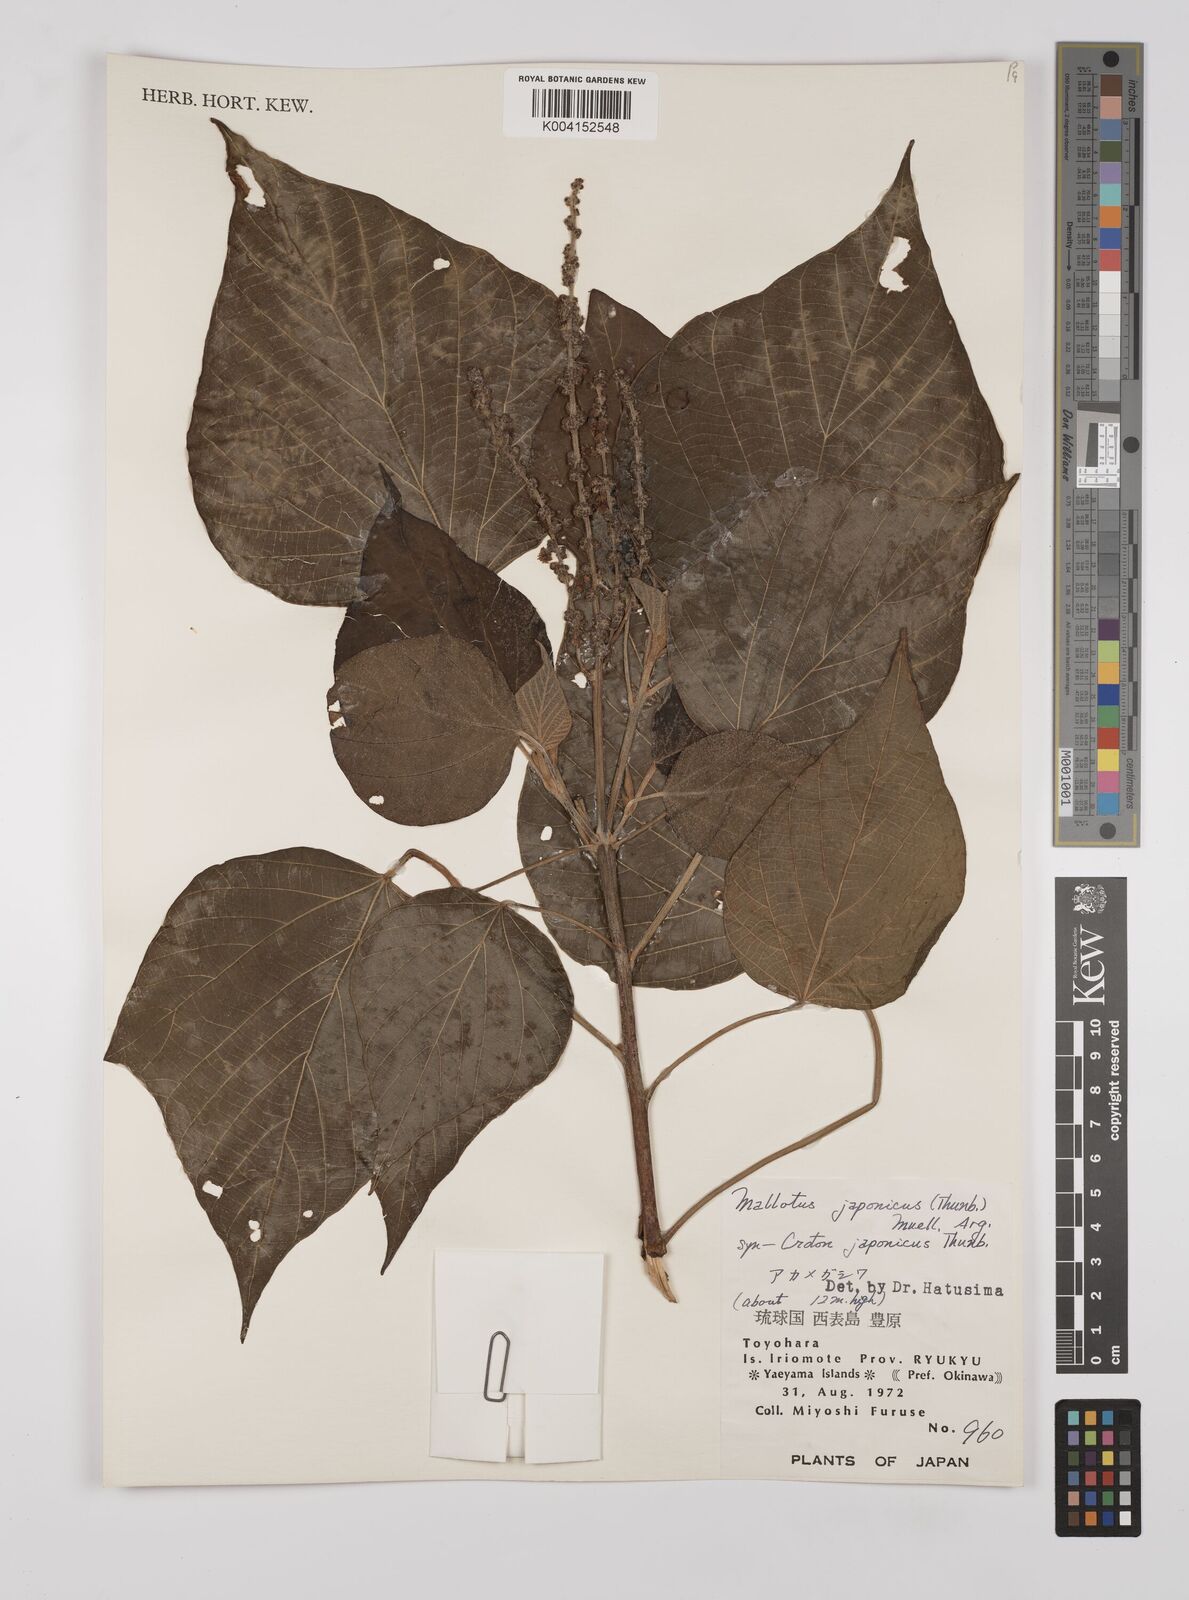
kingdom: Plantae
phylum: Tracheophyta
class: Magnoliopsida
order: Malpighiales
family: Euphorbiaceae
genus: Mallotus
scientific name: Mallotus japonicus
